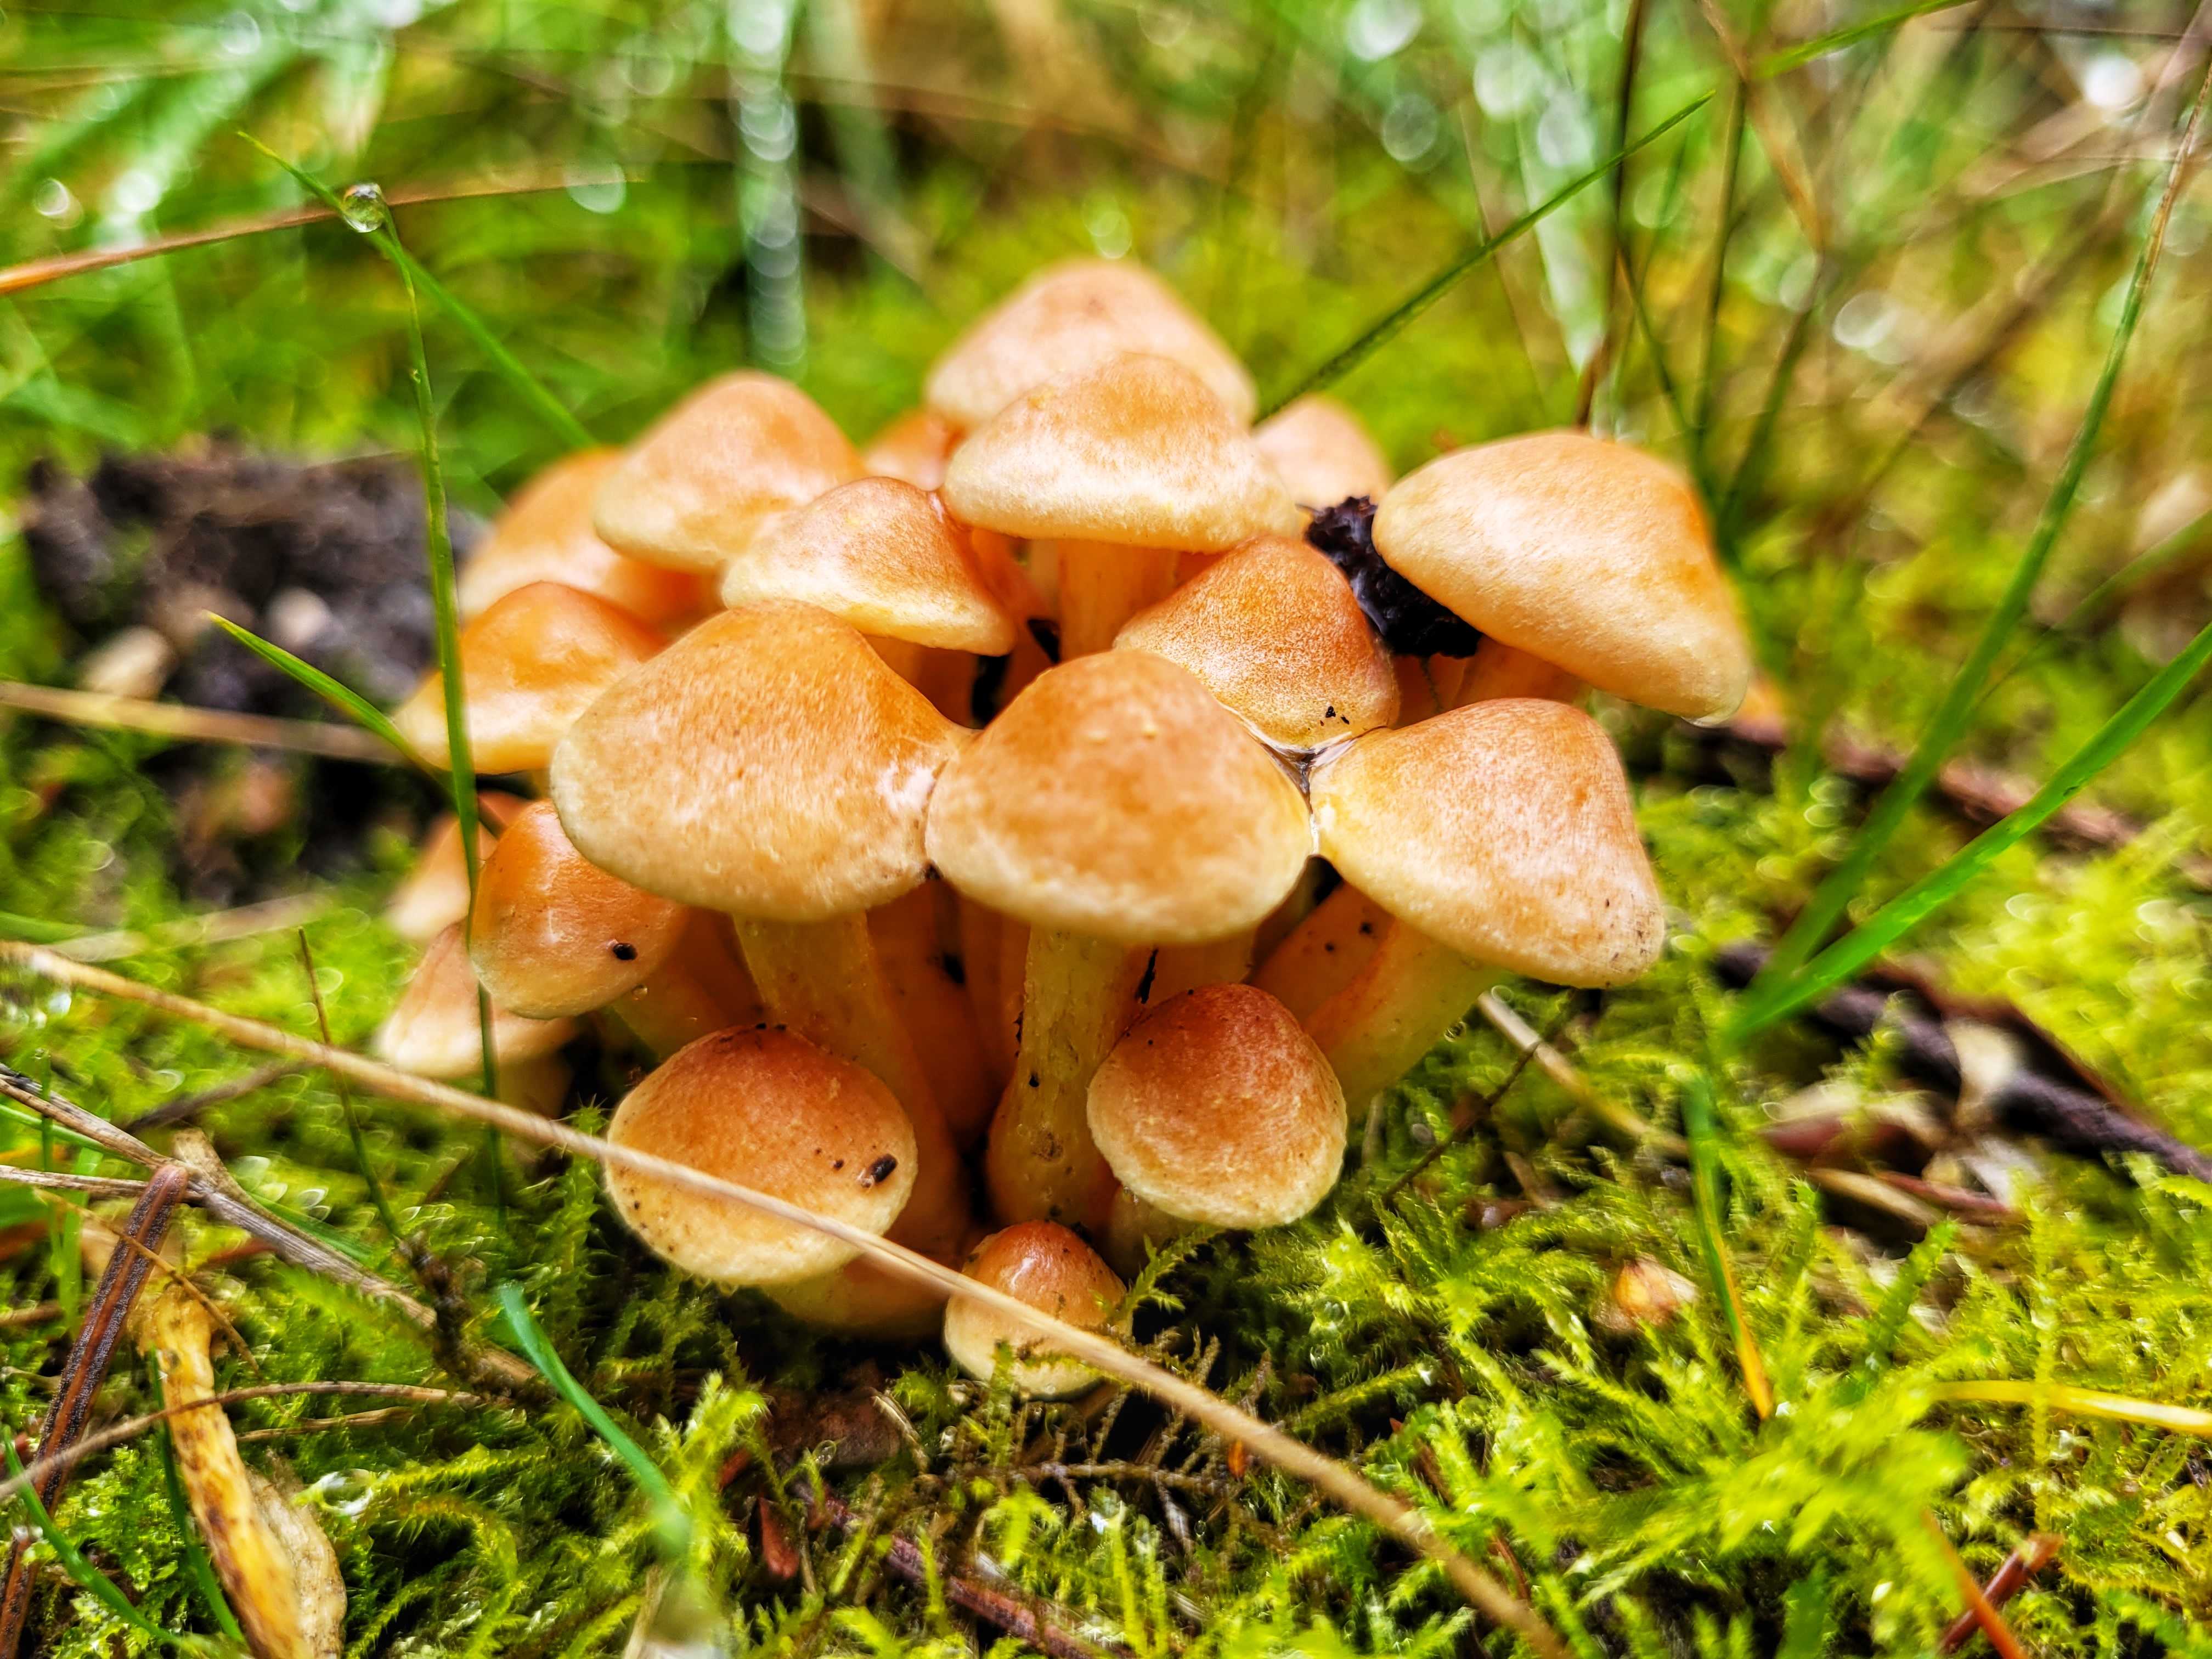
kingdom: Fungi
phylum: Basidiomycota
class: Agaricomycetes
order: Agaricales
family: Strophariaceae
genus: Hypholoma
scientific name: Hypholoma fasciculare
